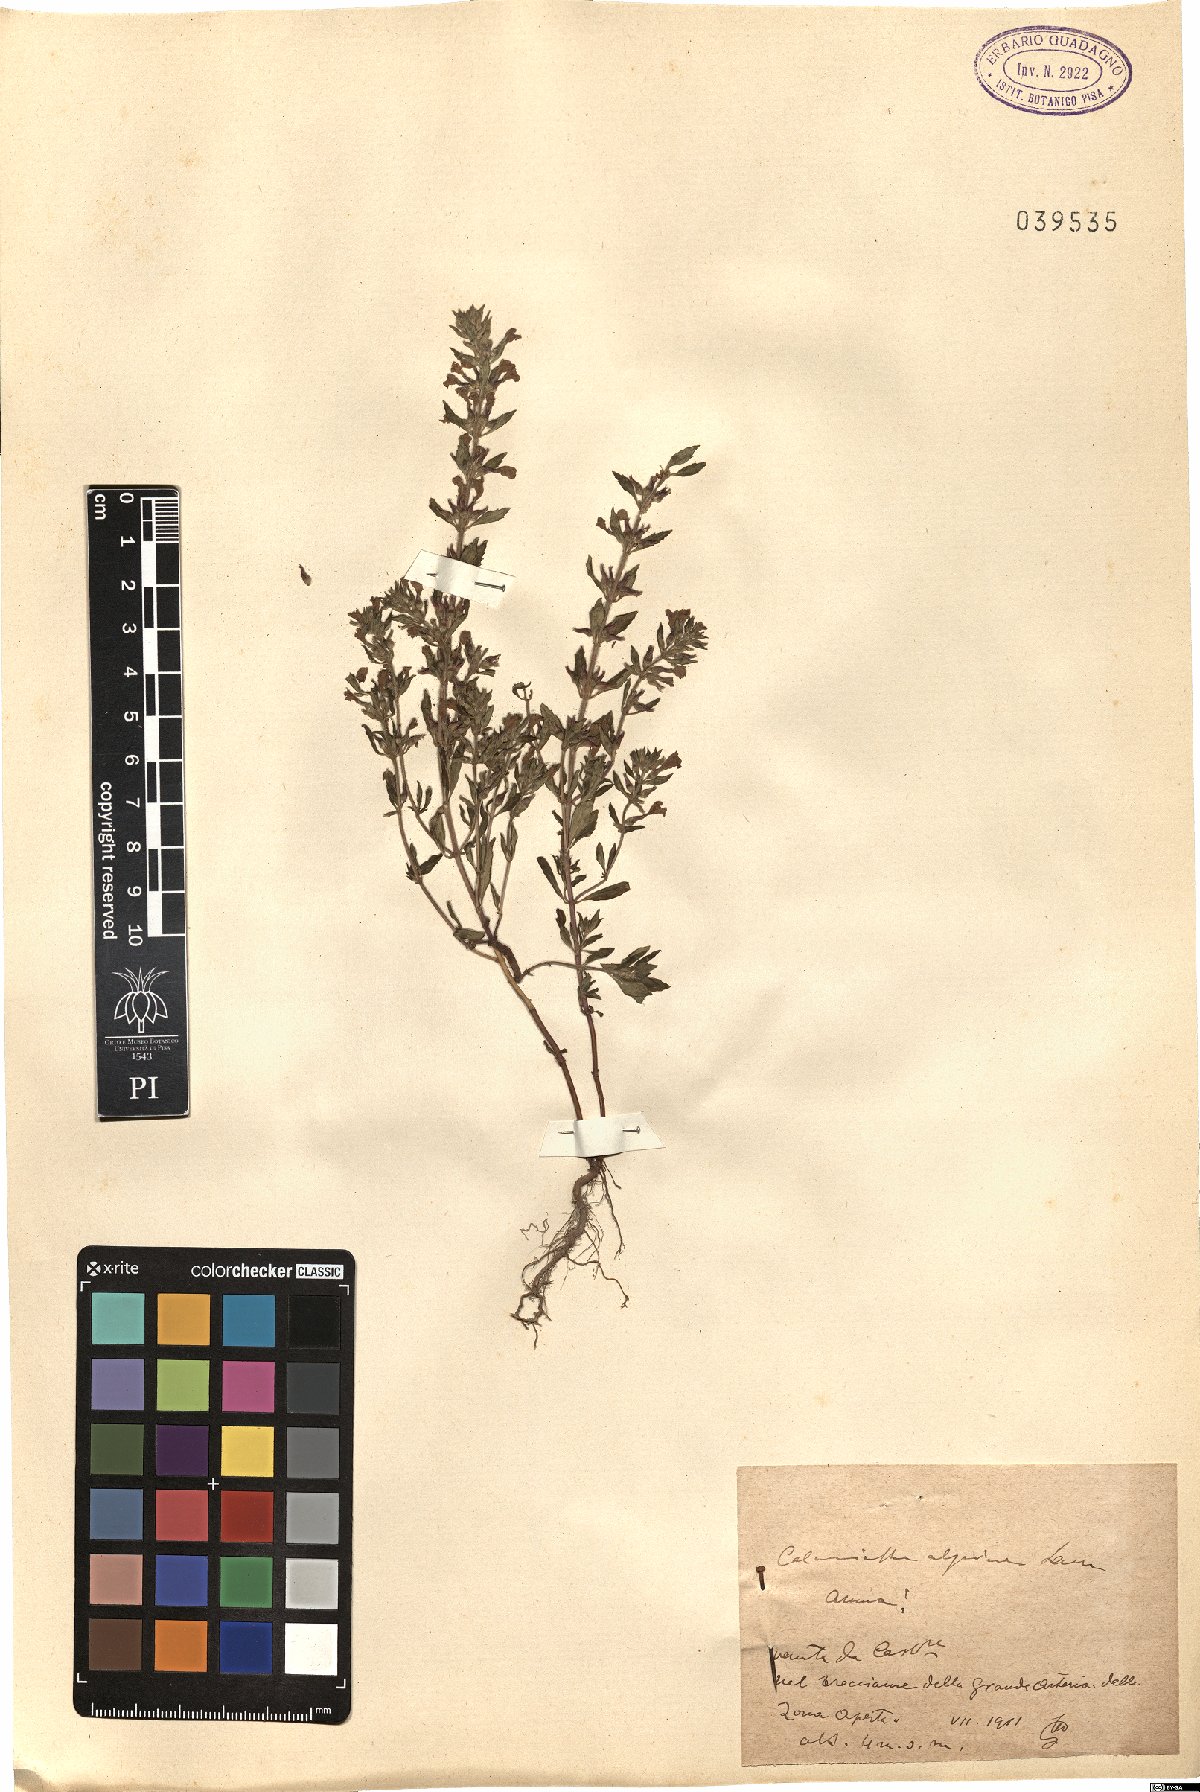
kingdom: Plantae
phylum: Tracheophyta
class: Magnoliopsida
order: Lamiales
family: Lamiaceae
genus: Clinopodium
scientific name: Clinopodium alpinum
